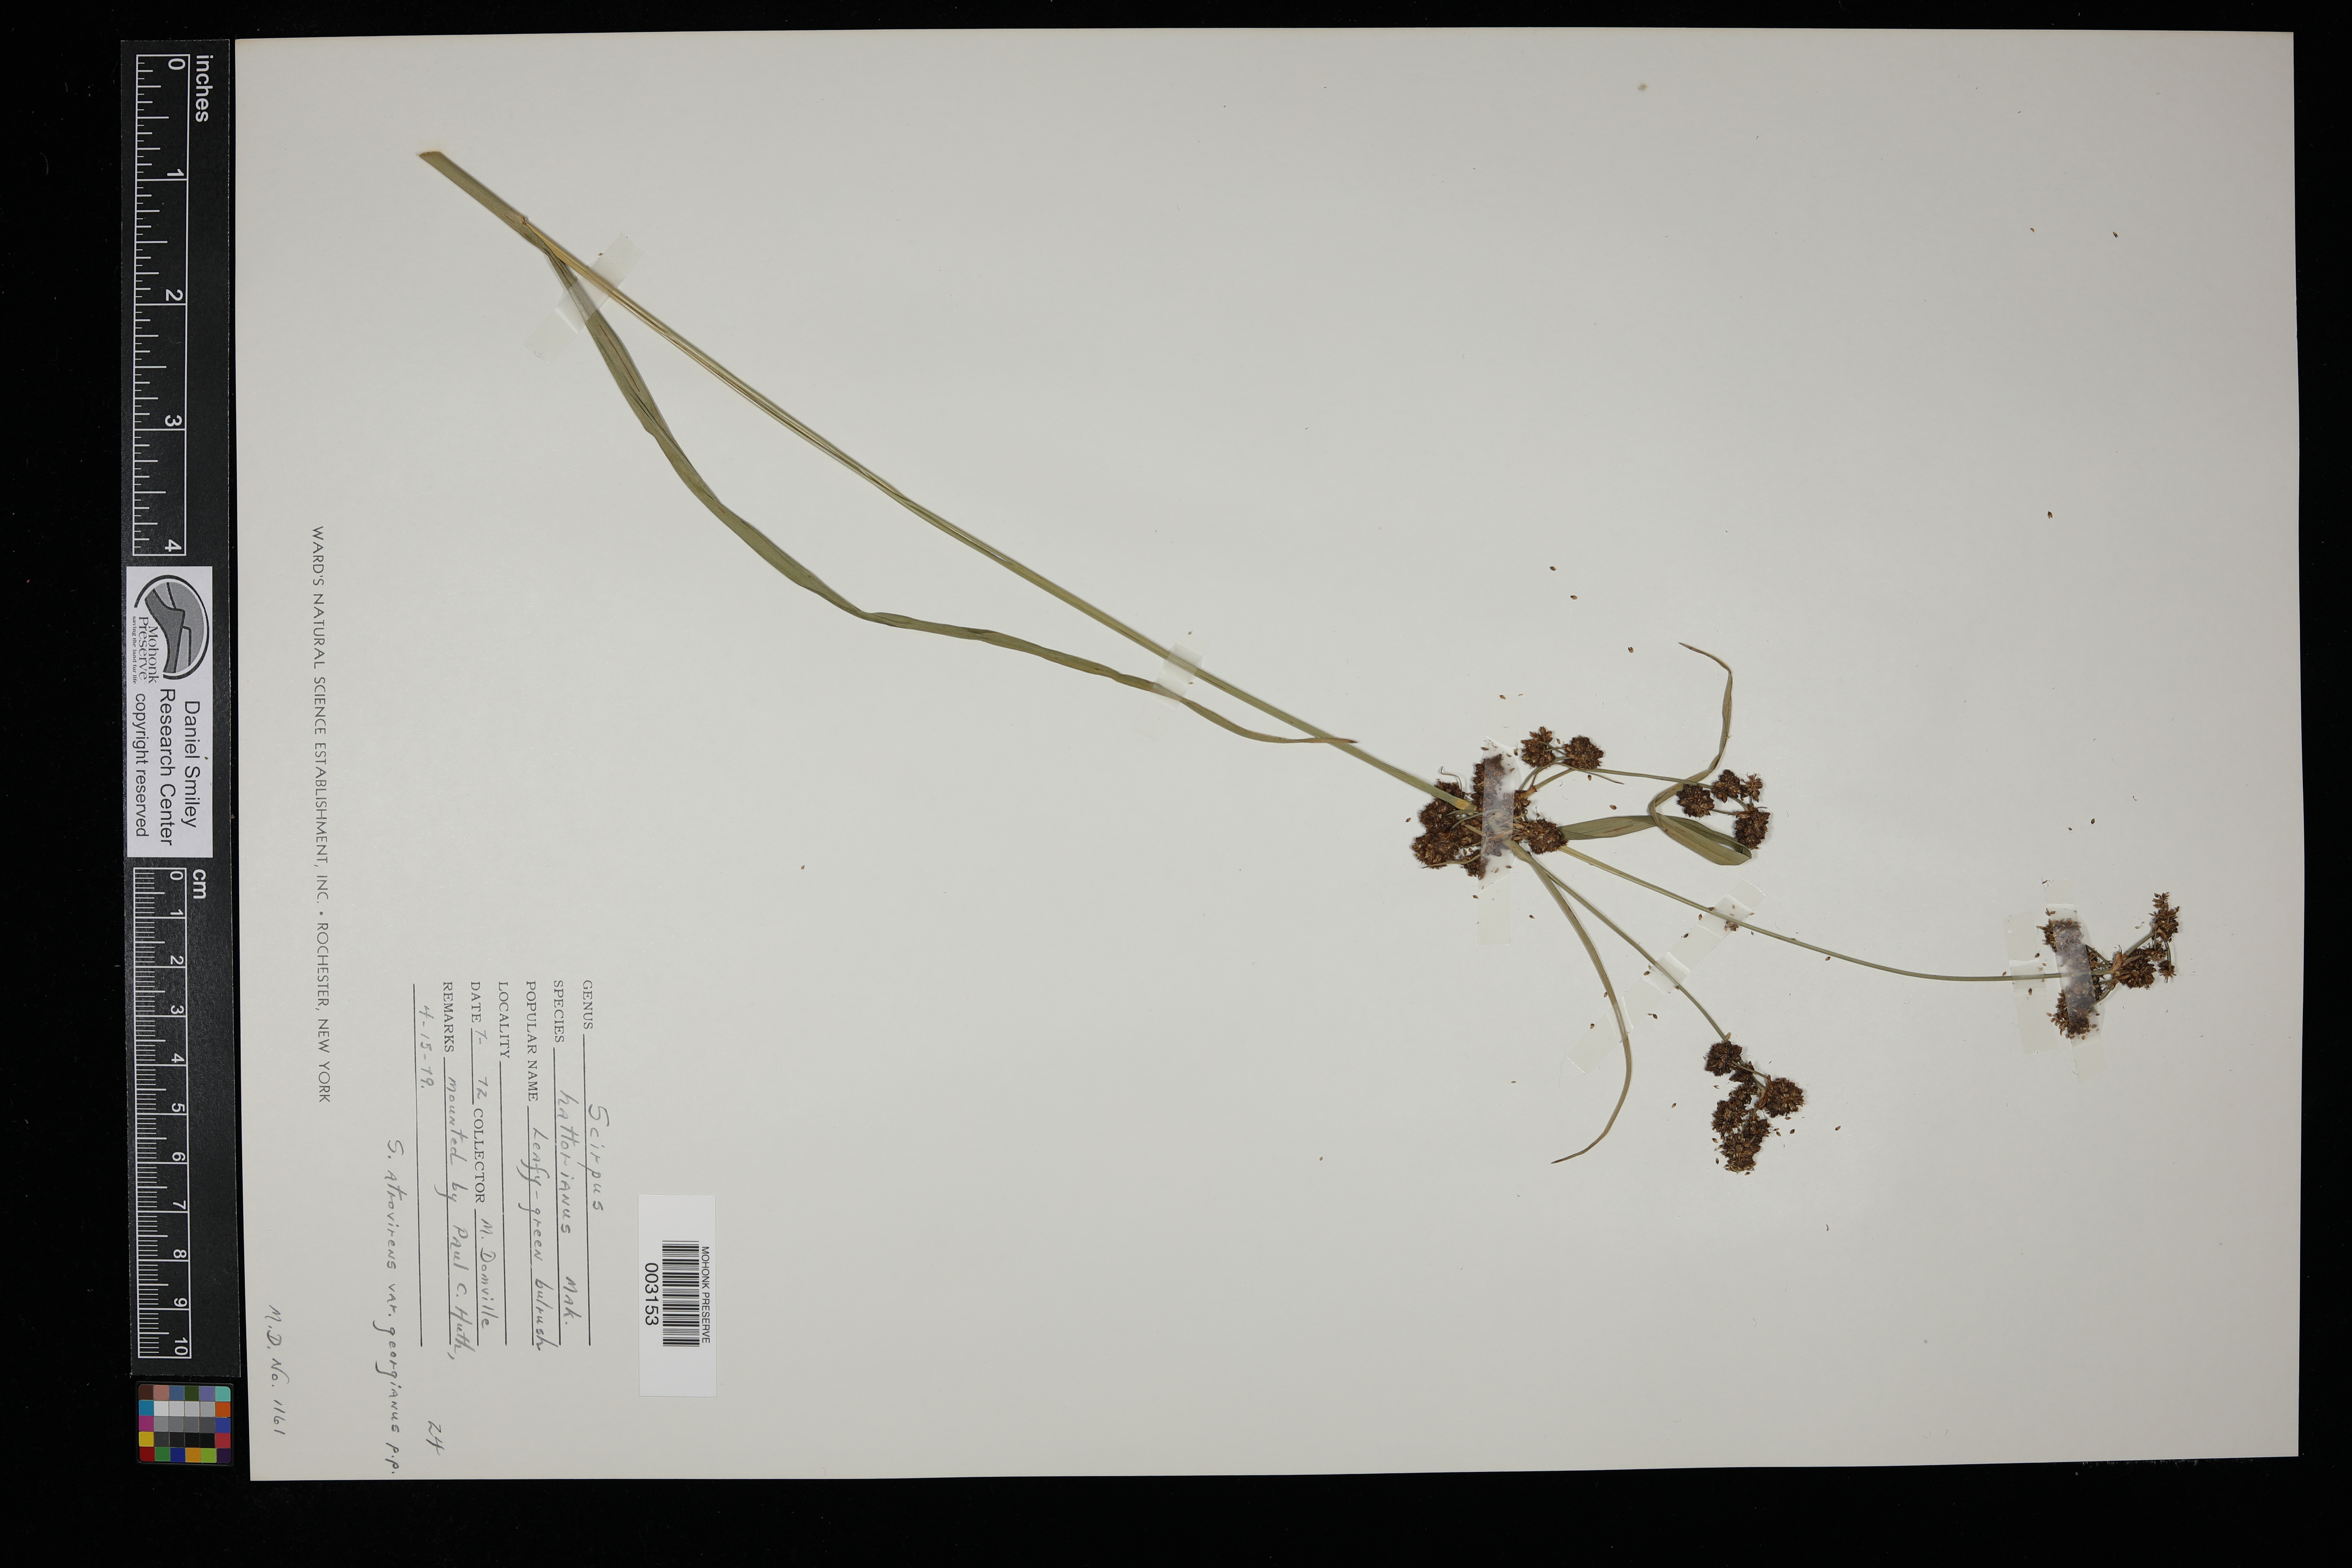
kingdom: Plantae
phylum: Tracheophyta
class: Liliopsida
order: Poales
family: Cyperaceae
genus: Scirpus
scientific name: Scirpus hattorianus
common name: Early dark-green bulrush
